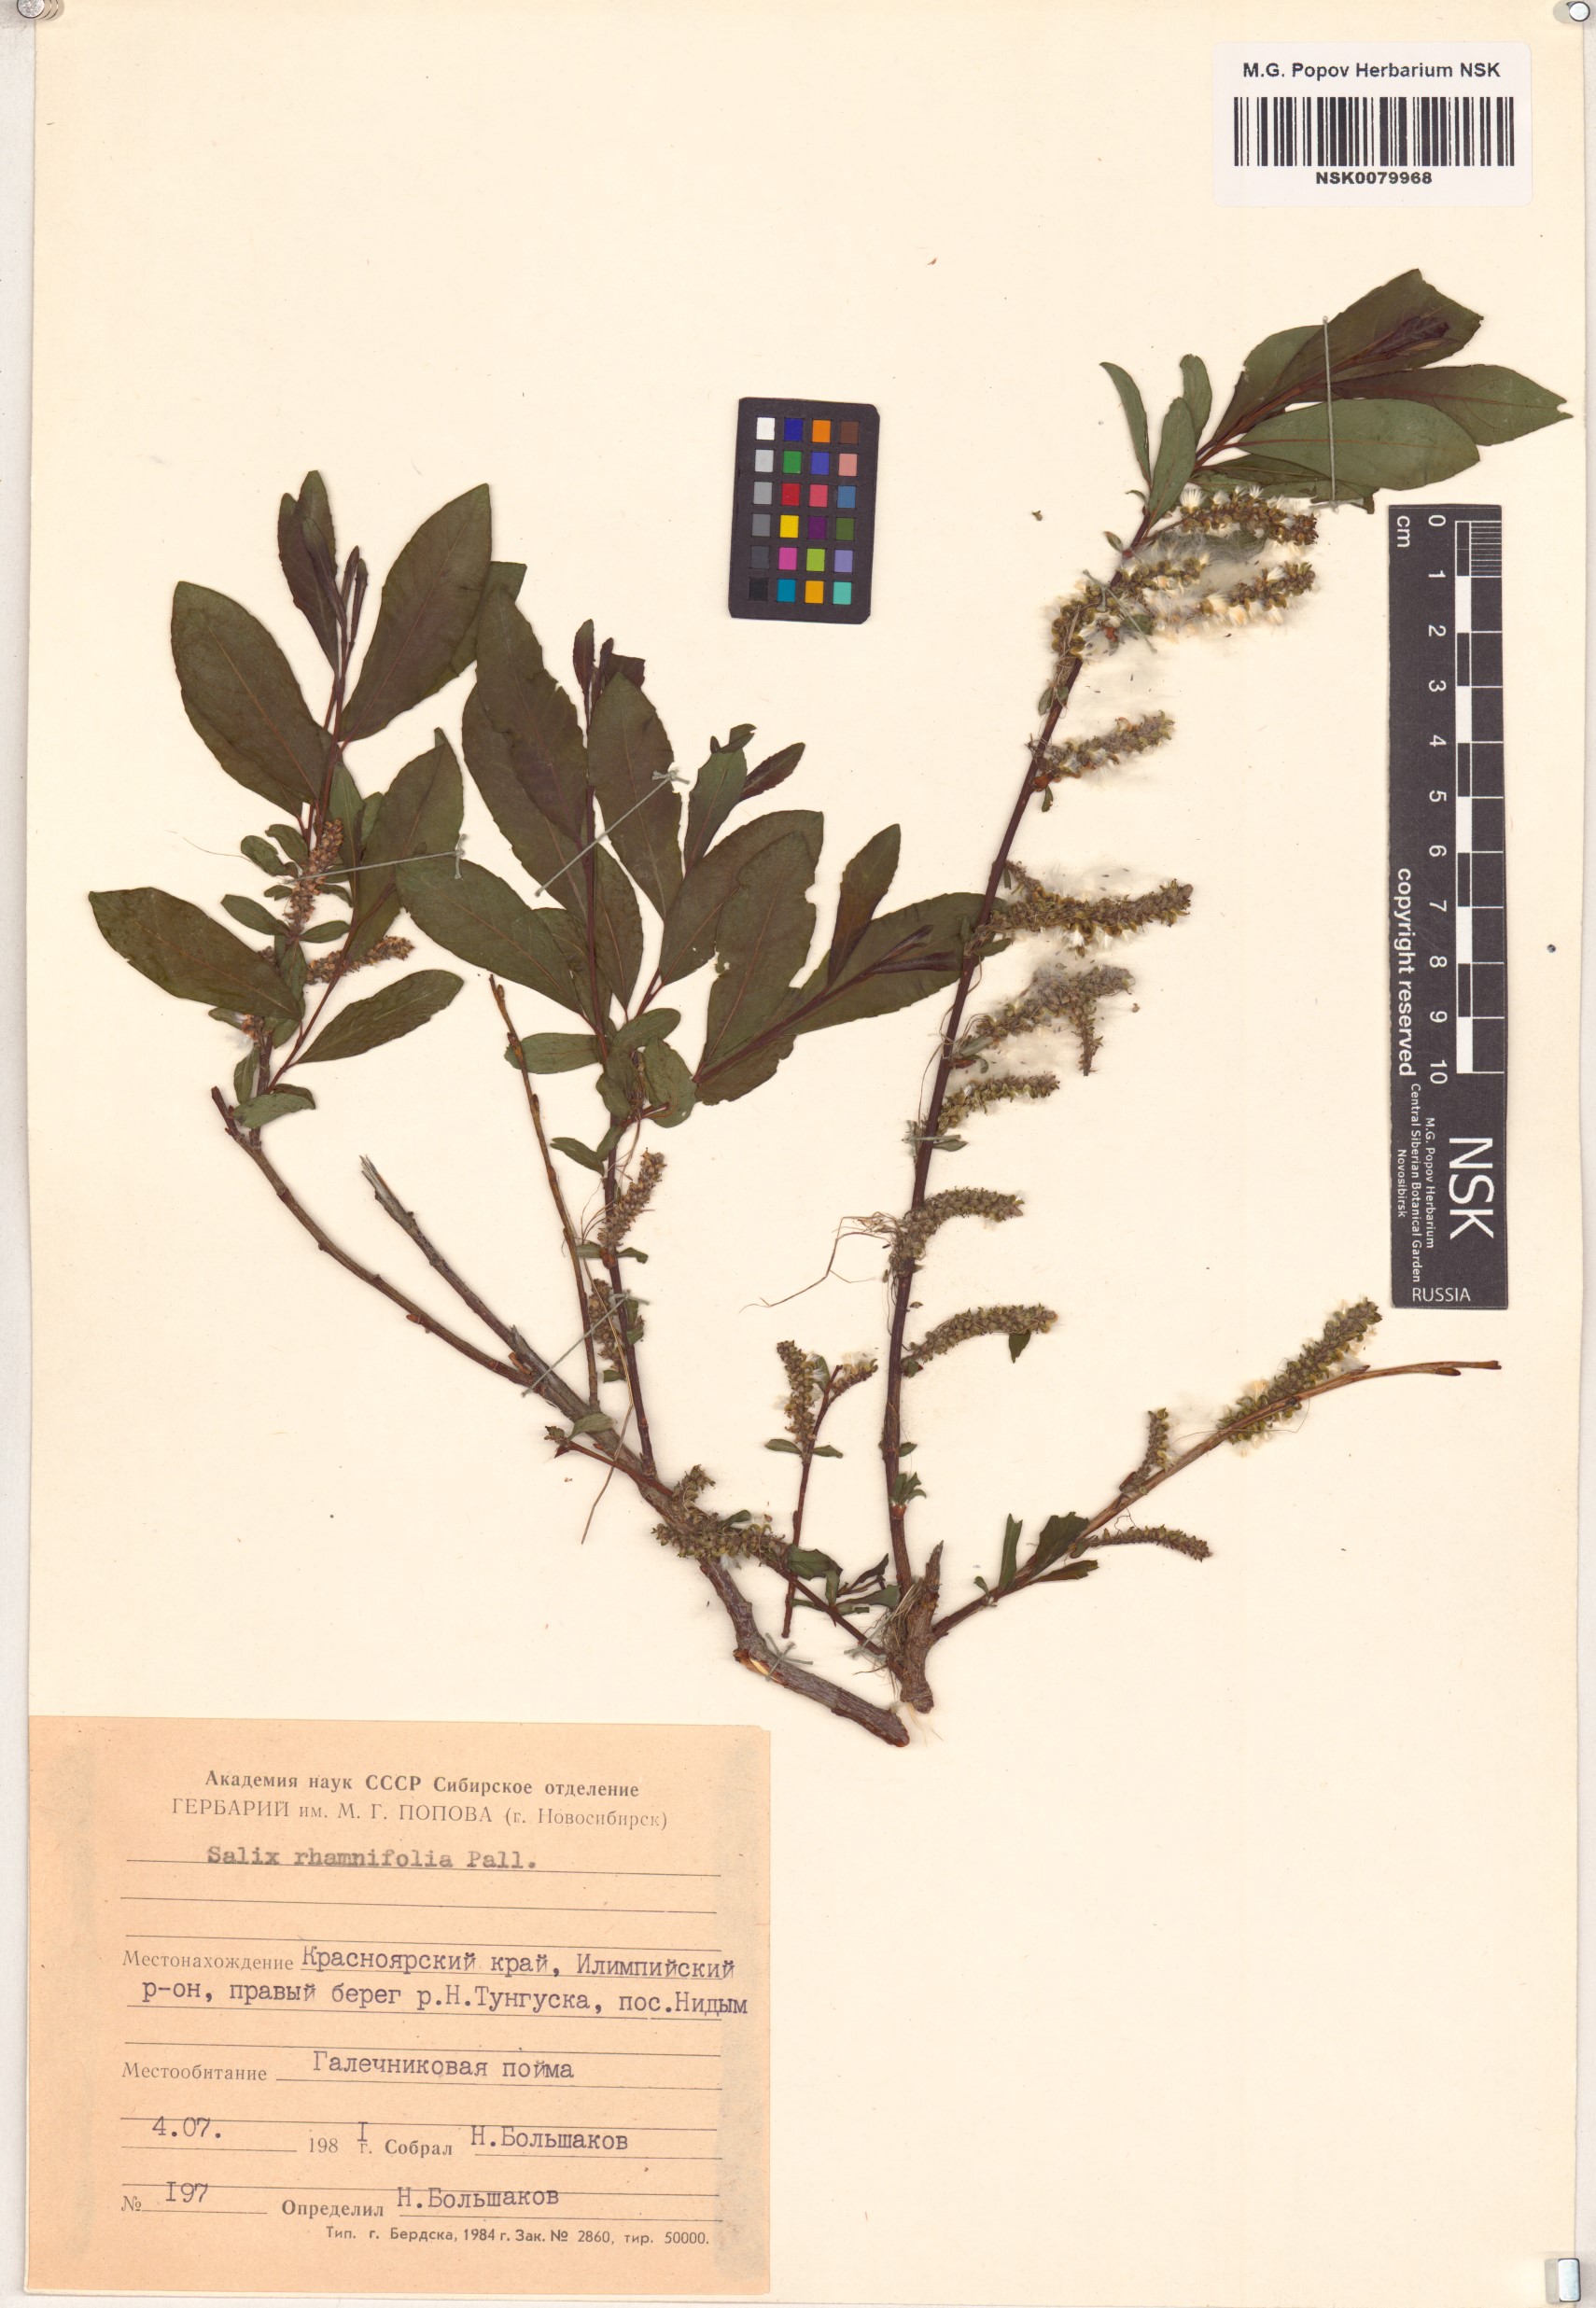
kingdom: Plantae
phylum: Tracheophyta
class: Magnoliopsida
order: Malpighiales
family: Salicaceae
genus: Salix
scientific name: Salix rhamnifolia
